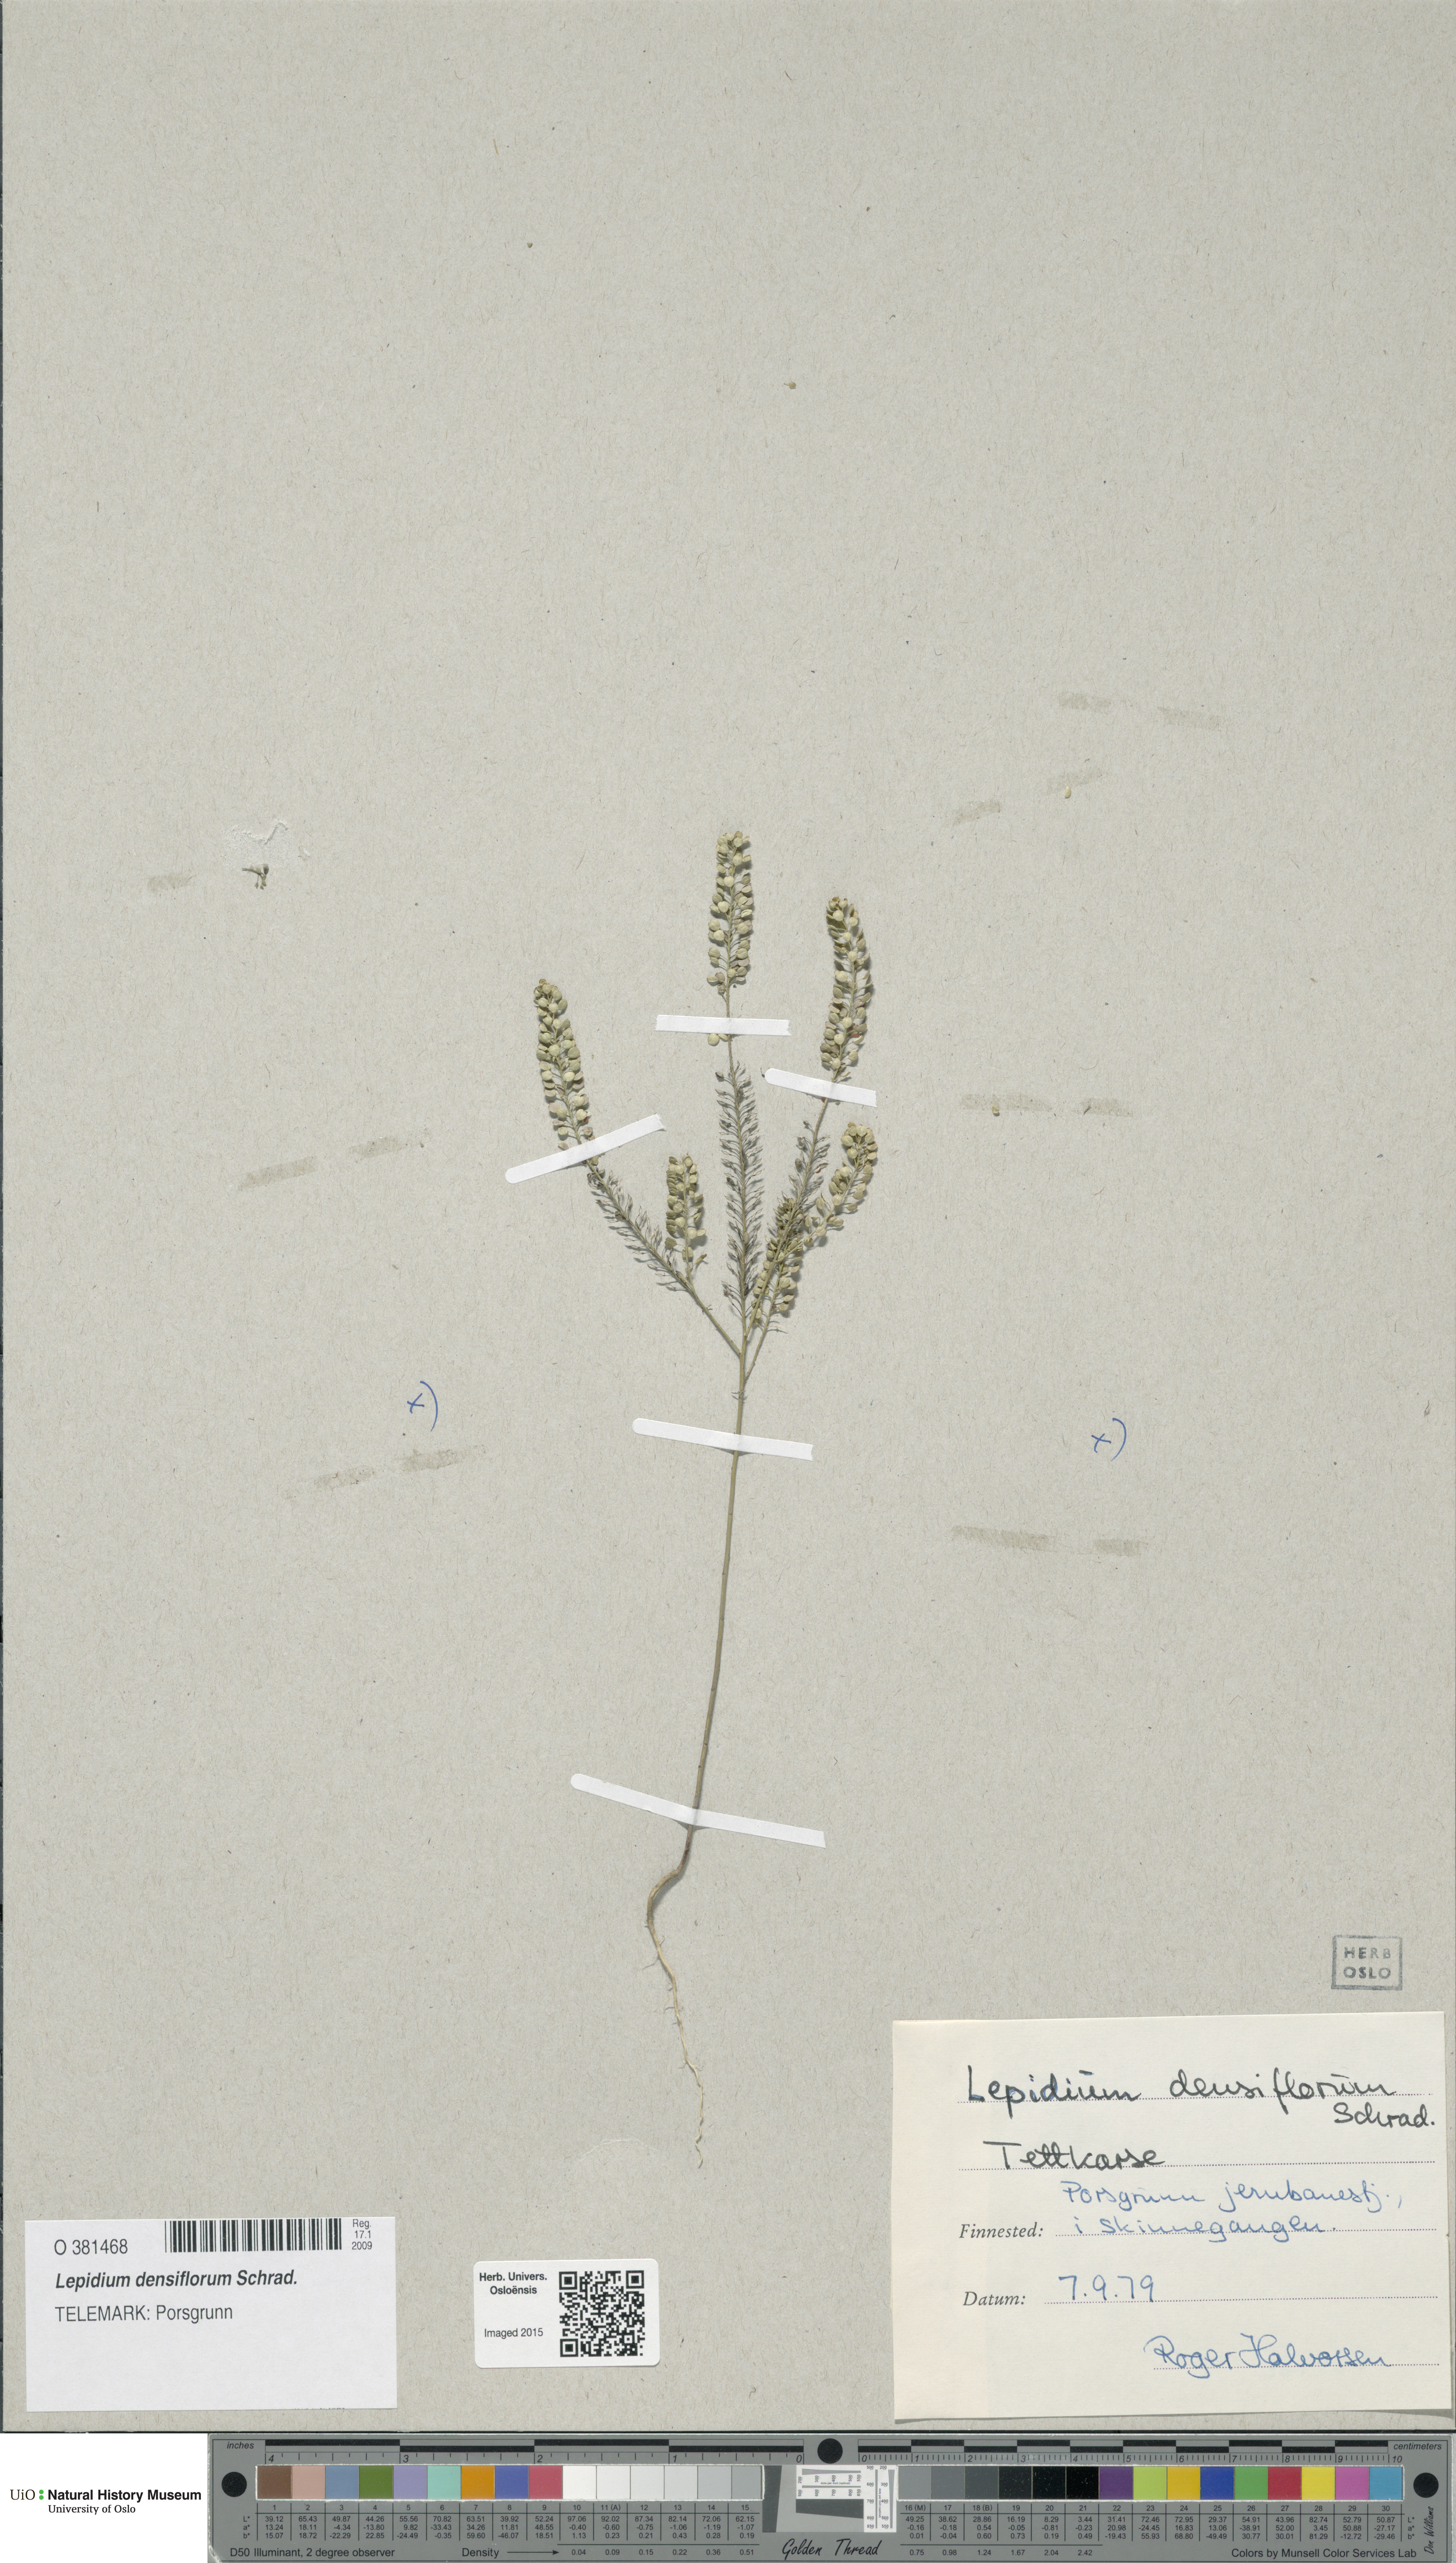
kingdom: Plantae
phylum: Tracheophyta
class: Magnoliopsida
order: Brassicales
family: Brassicaceae
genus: Lepidium
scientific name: Lepidium densiflorum
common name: Miner's pepperwort
